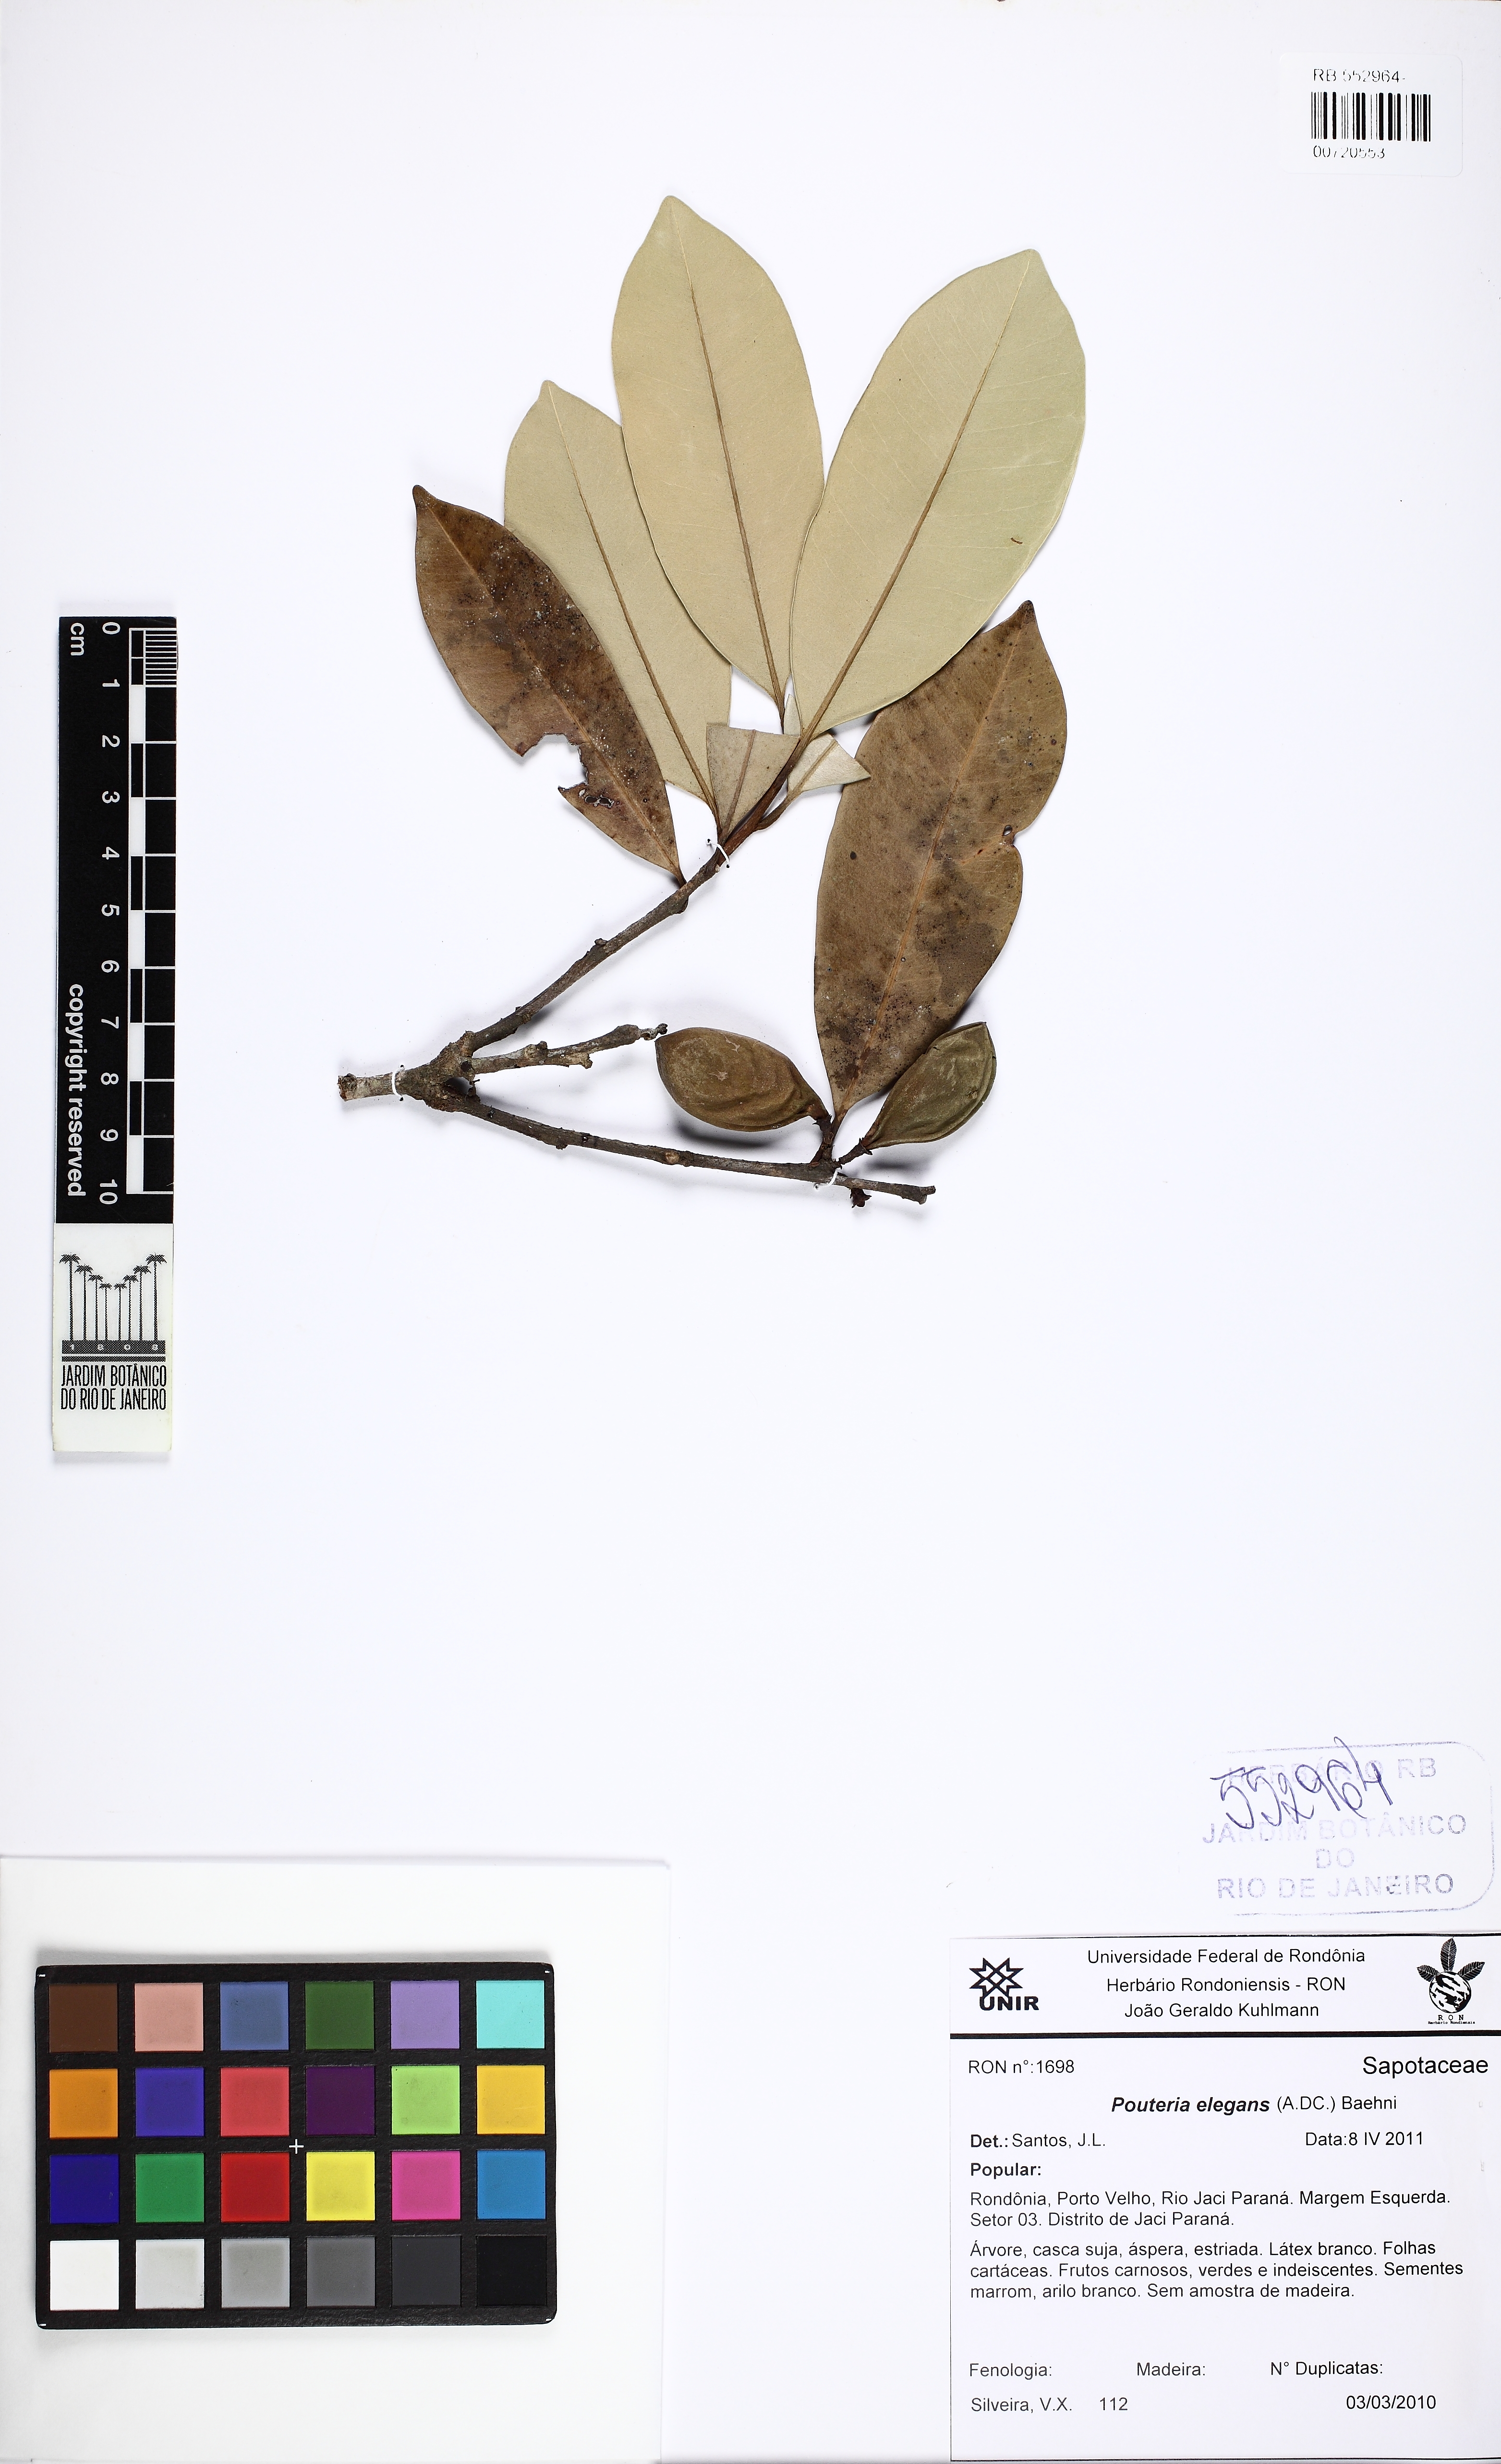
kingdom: Plantae
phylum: Tracheophyta
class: Magnoliopsida
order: Ericales
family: Sapotaceae
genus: Pouteria
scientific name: Pouteria elegans
